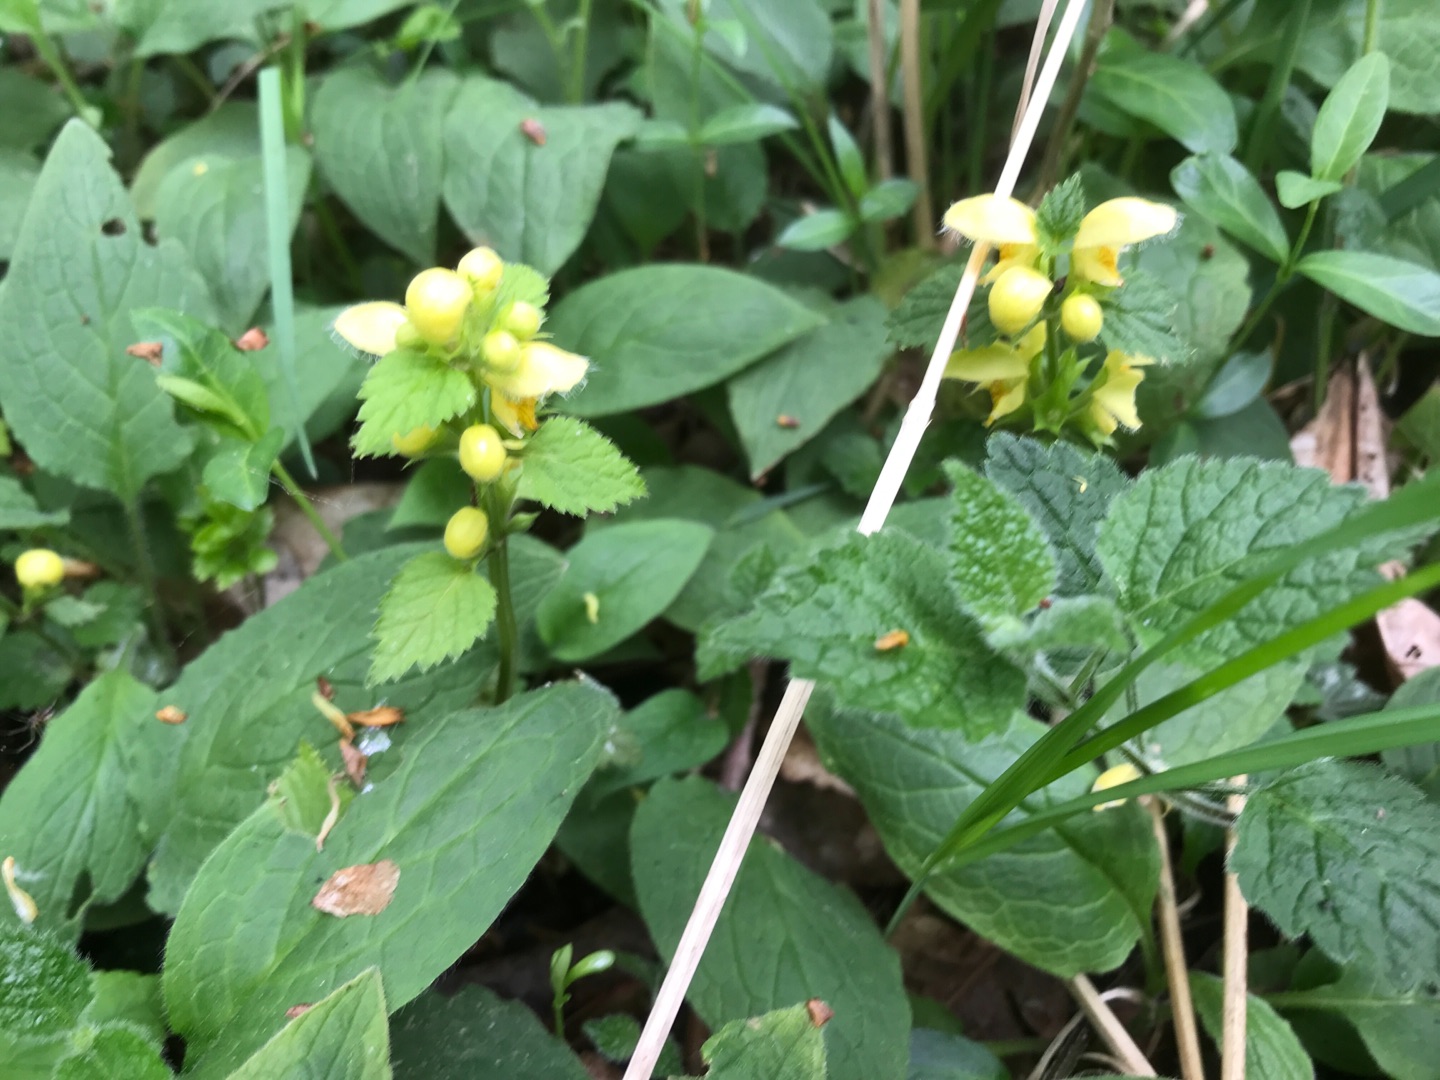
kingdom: Plantae
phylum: Tracheophyta
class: Magnoliopsida
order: Lamiales
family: Lamiaceae
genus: Lamium
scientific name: Lamium galeobdolon
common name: Almindelig guldnælde
